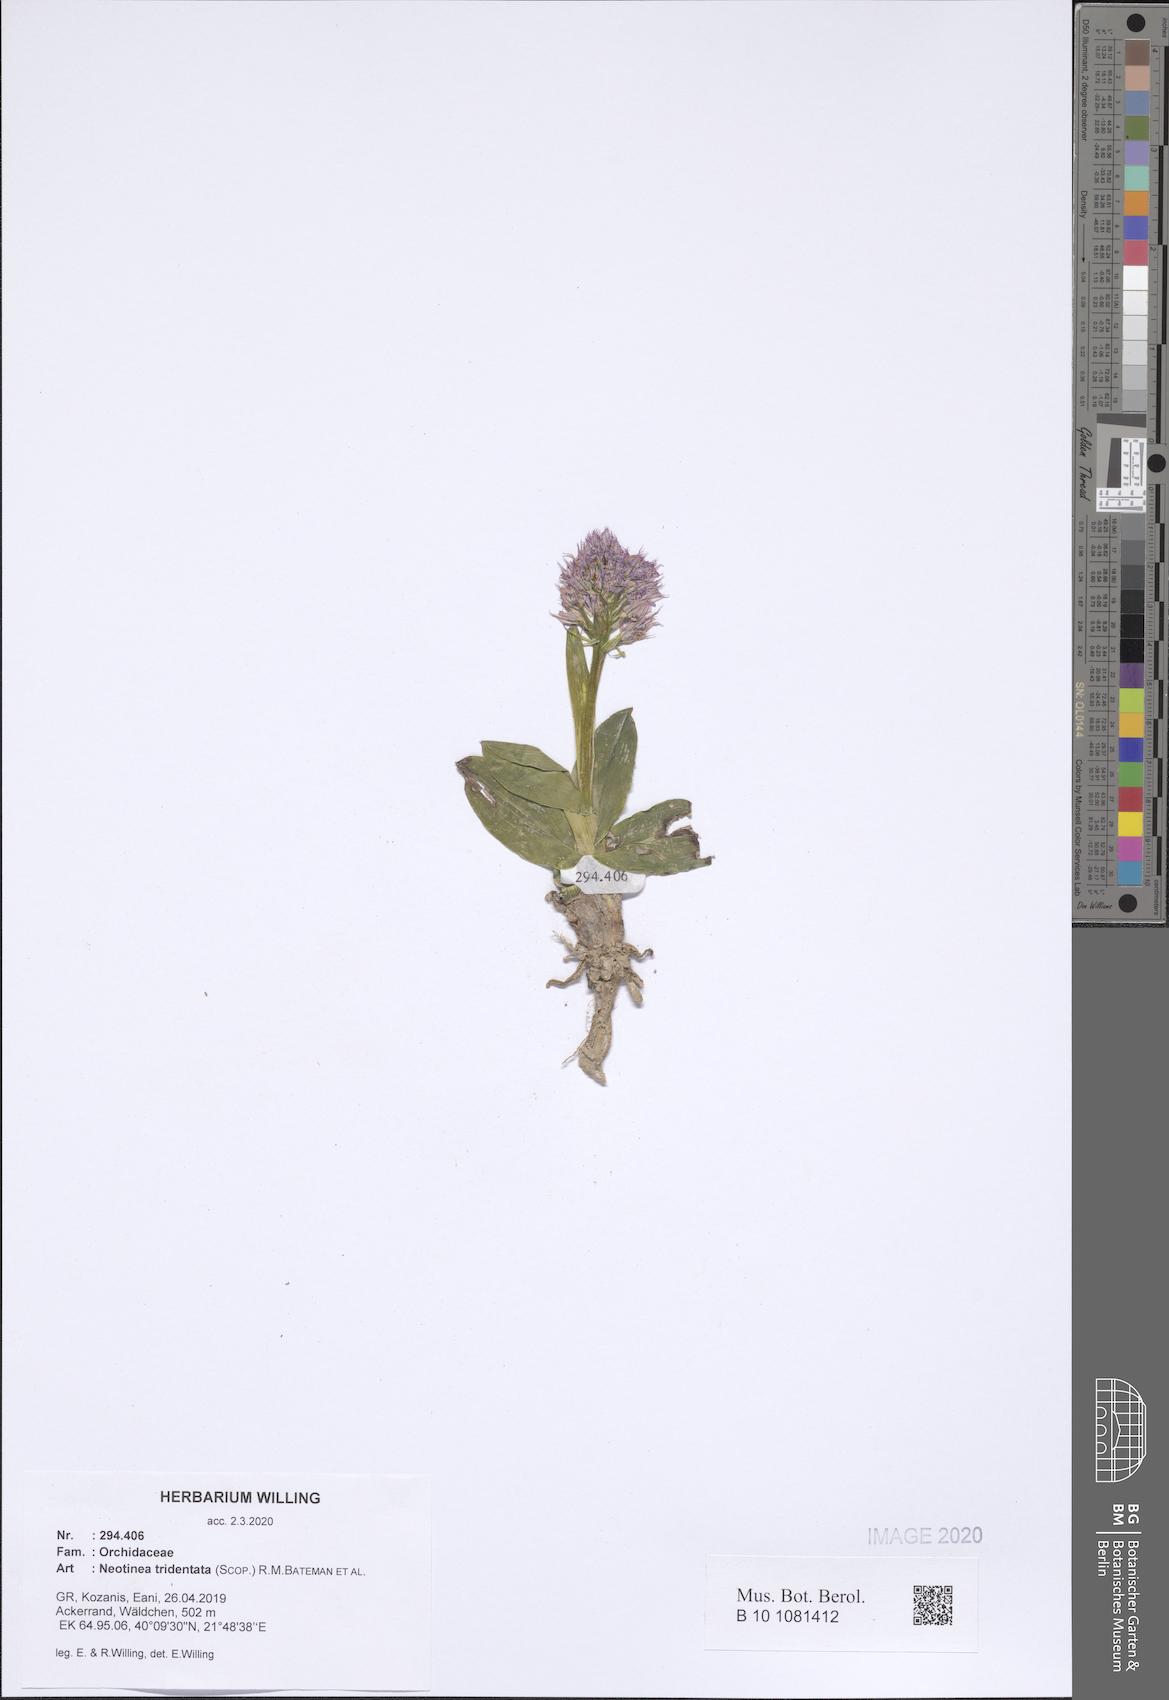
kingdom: Plantae
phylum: Tracheophyta
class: Liliopsida
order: Asparagales
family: Orchidaceae
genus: Neotinea
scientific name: Neotinea tridentata
